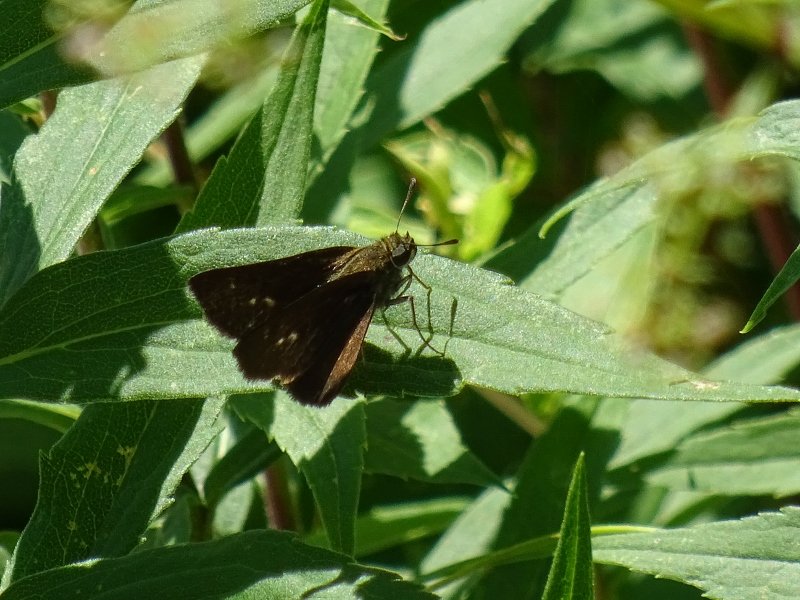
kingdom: Animalia
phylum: Arthropoda
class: Insecta
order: Lepidoptera
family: Hesperiidae
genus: Euphyes
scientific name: Euphyes vestris
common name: Dun Skipper
